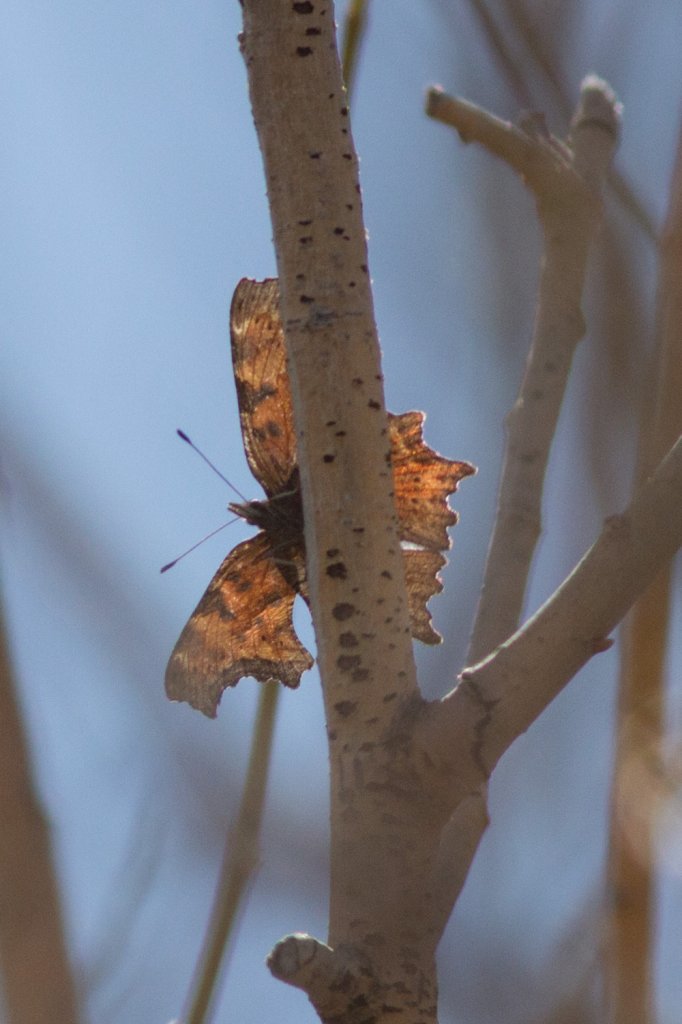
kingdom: Animalia
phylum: Arthropoda
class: Insecta
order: Lepidoptera
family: Nymphalidae
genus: Polygonia
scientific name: Polygonia
